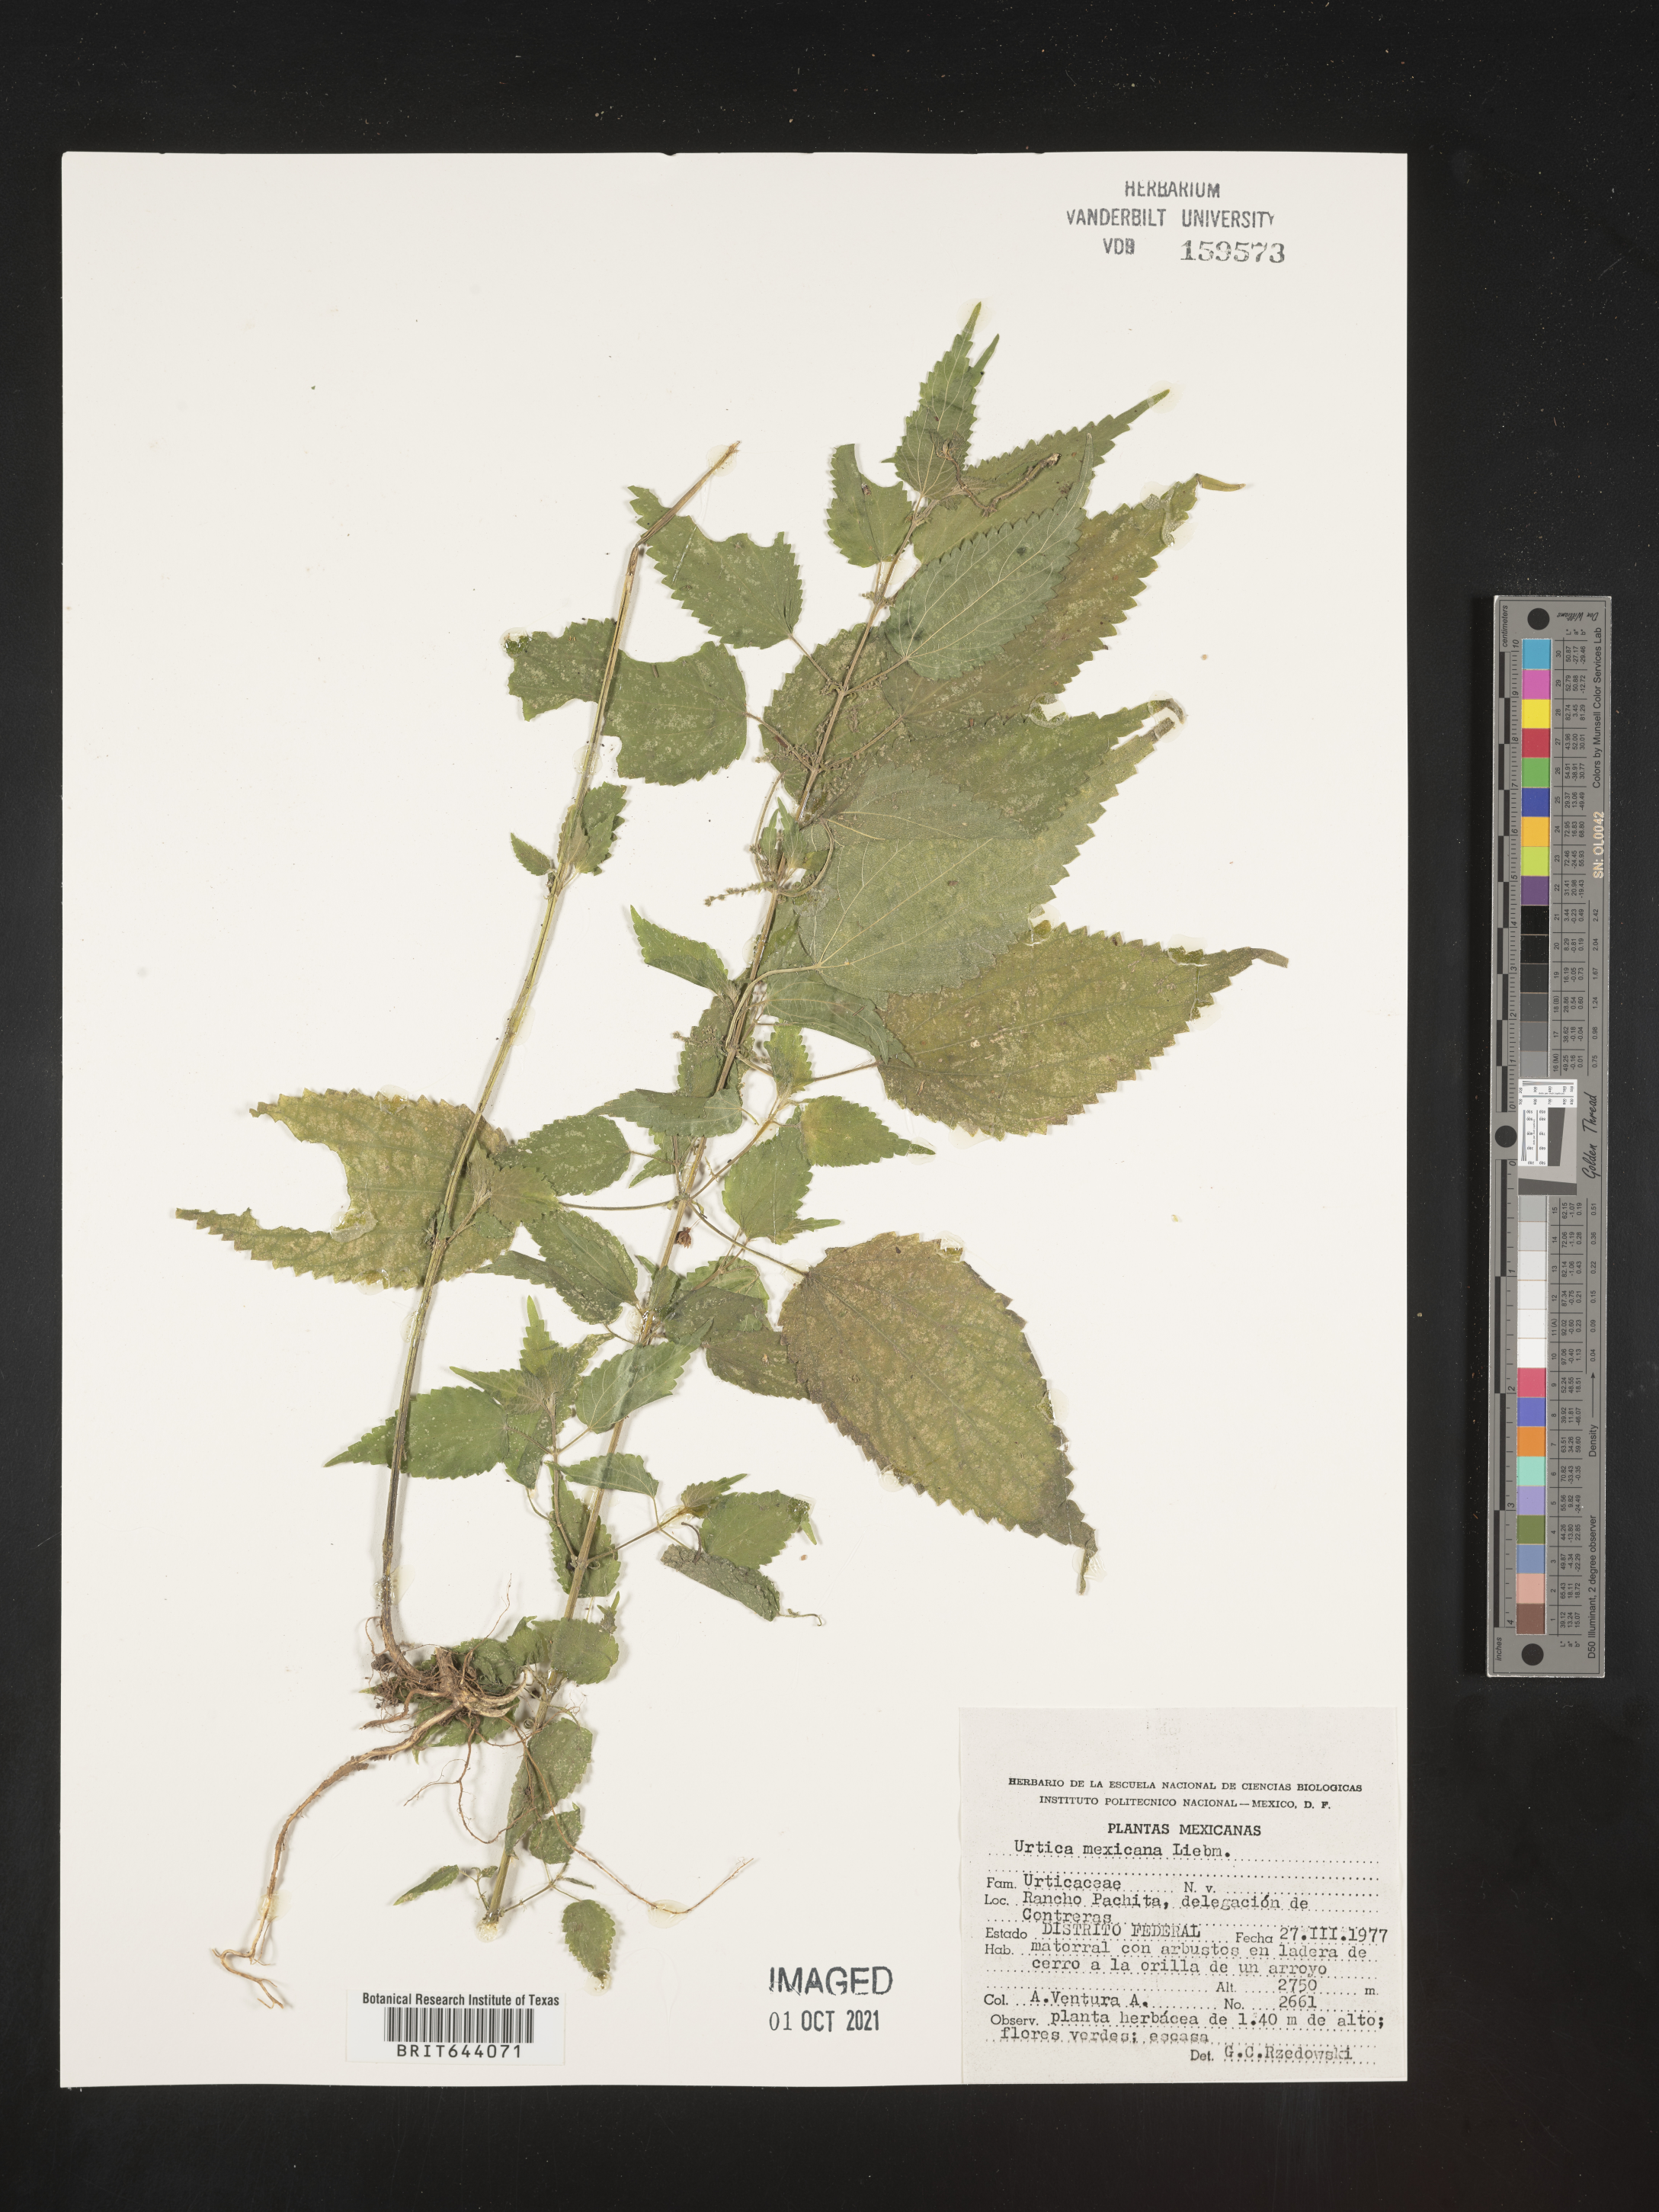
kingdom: Plantae
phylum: Tracheophyta
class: Magnoliopsida
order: Rosales
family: Urticaceae
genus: Urtica
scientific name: Urtica
